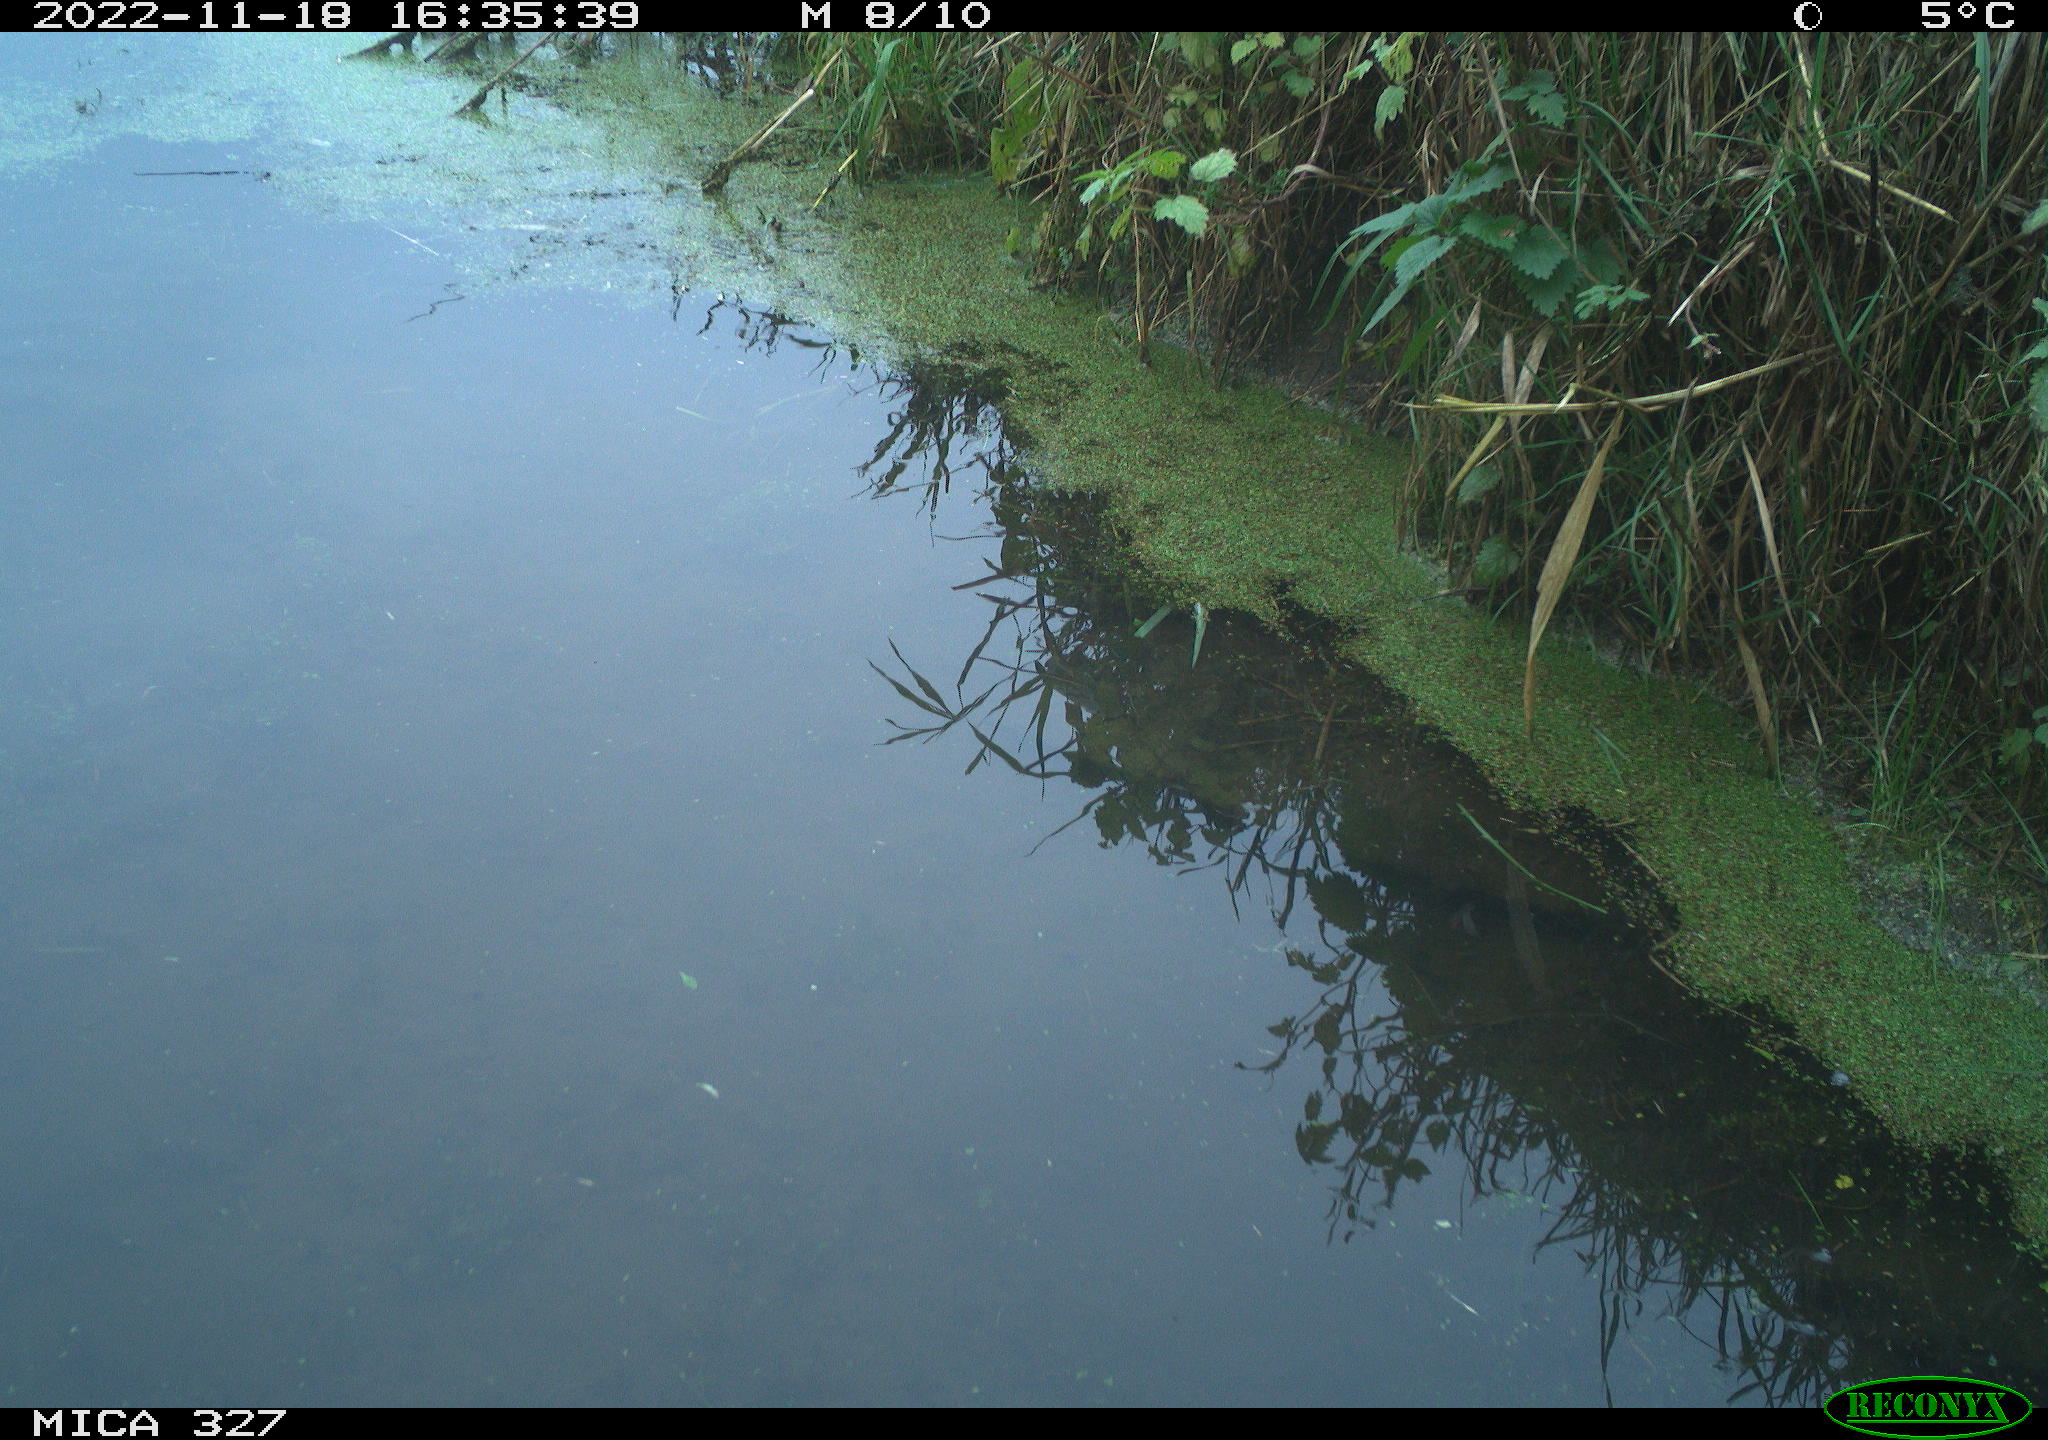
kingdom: Animalia
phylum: Chordata
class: Aves
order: Gruiformes
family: Rallidae
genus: Gallinula
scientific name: Gallinula chloropus
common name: Common moorhen
